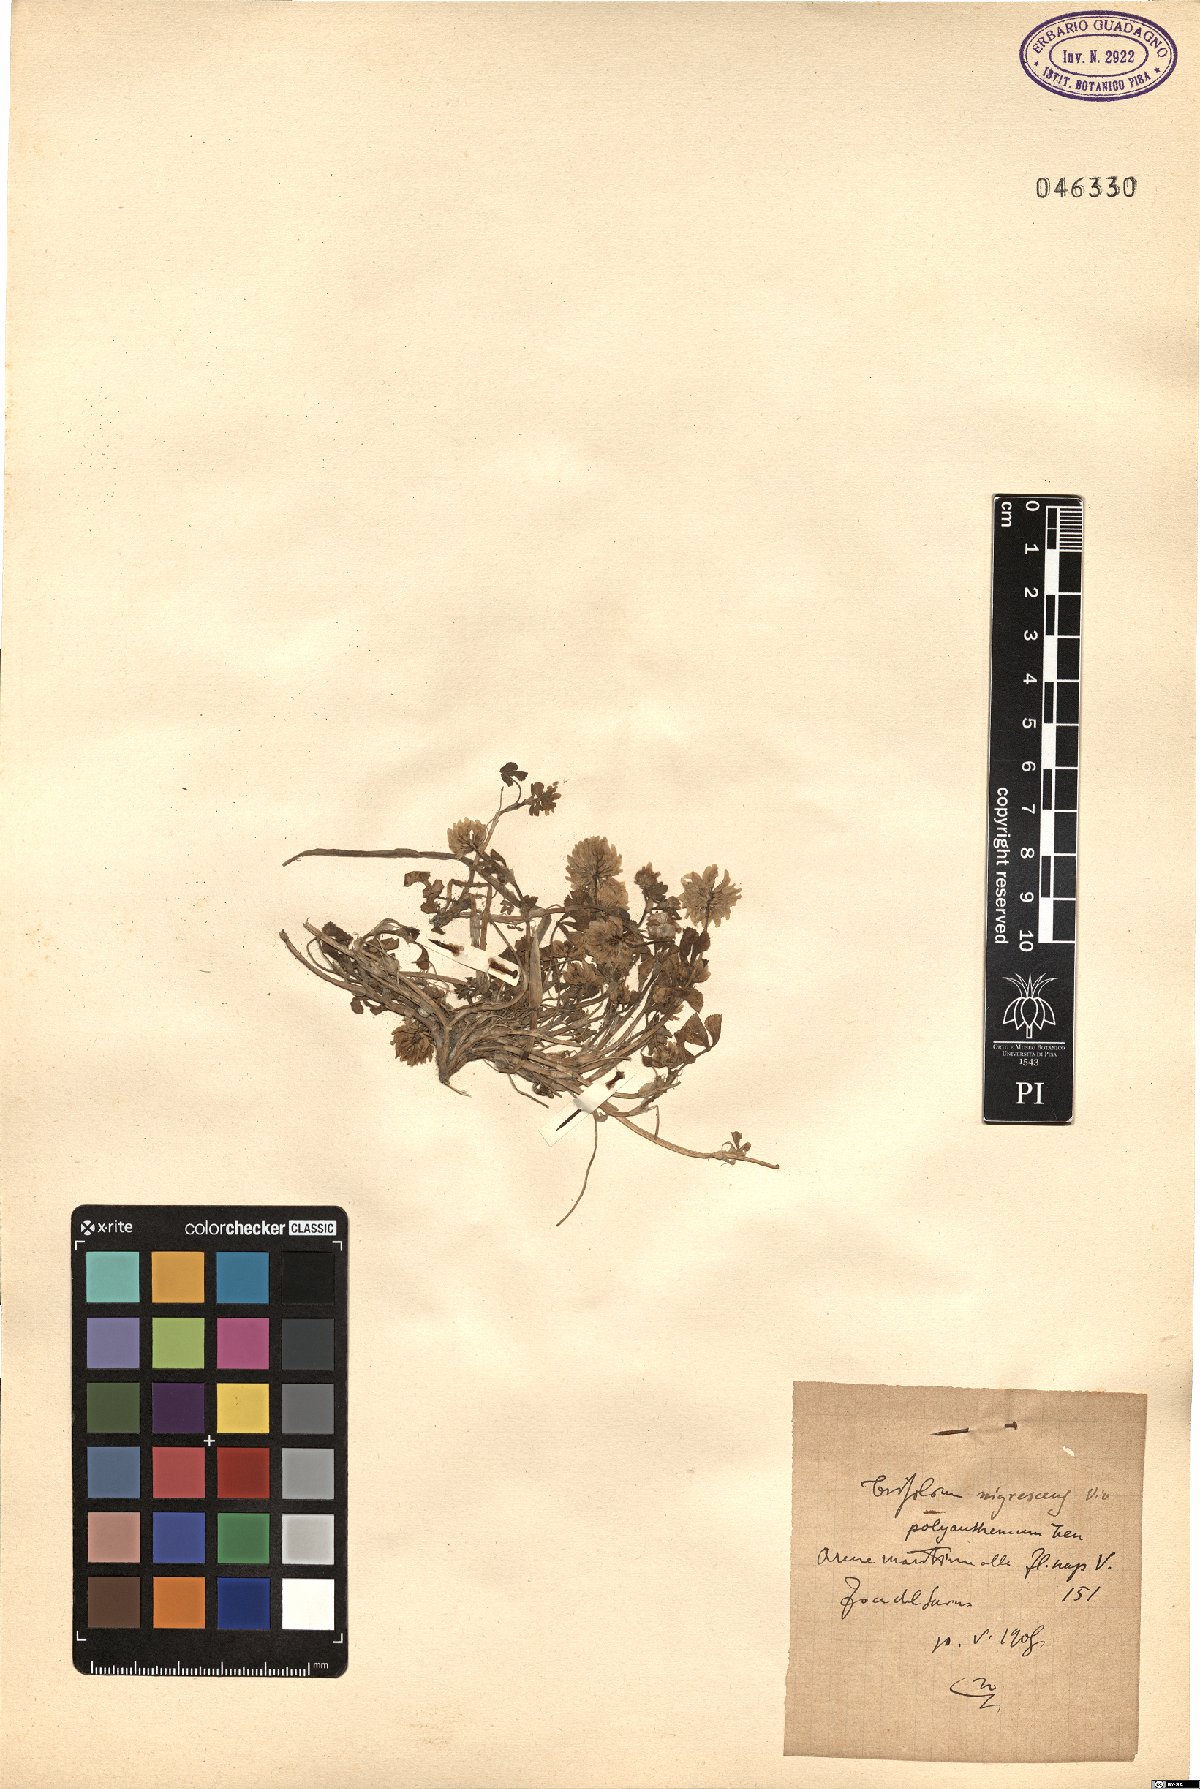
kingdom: Plantae
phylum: Tracheophyta
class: Magnoliopsida
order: Fabales
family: Fabaceae
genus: Trifolium
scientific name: Trifolium nigrescens
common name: Small white clover
